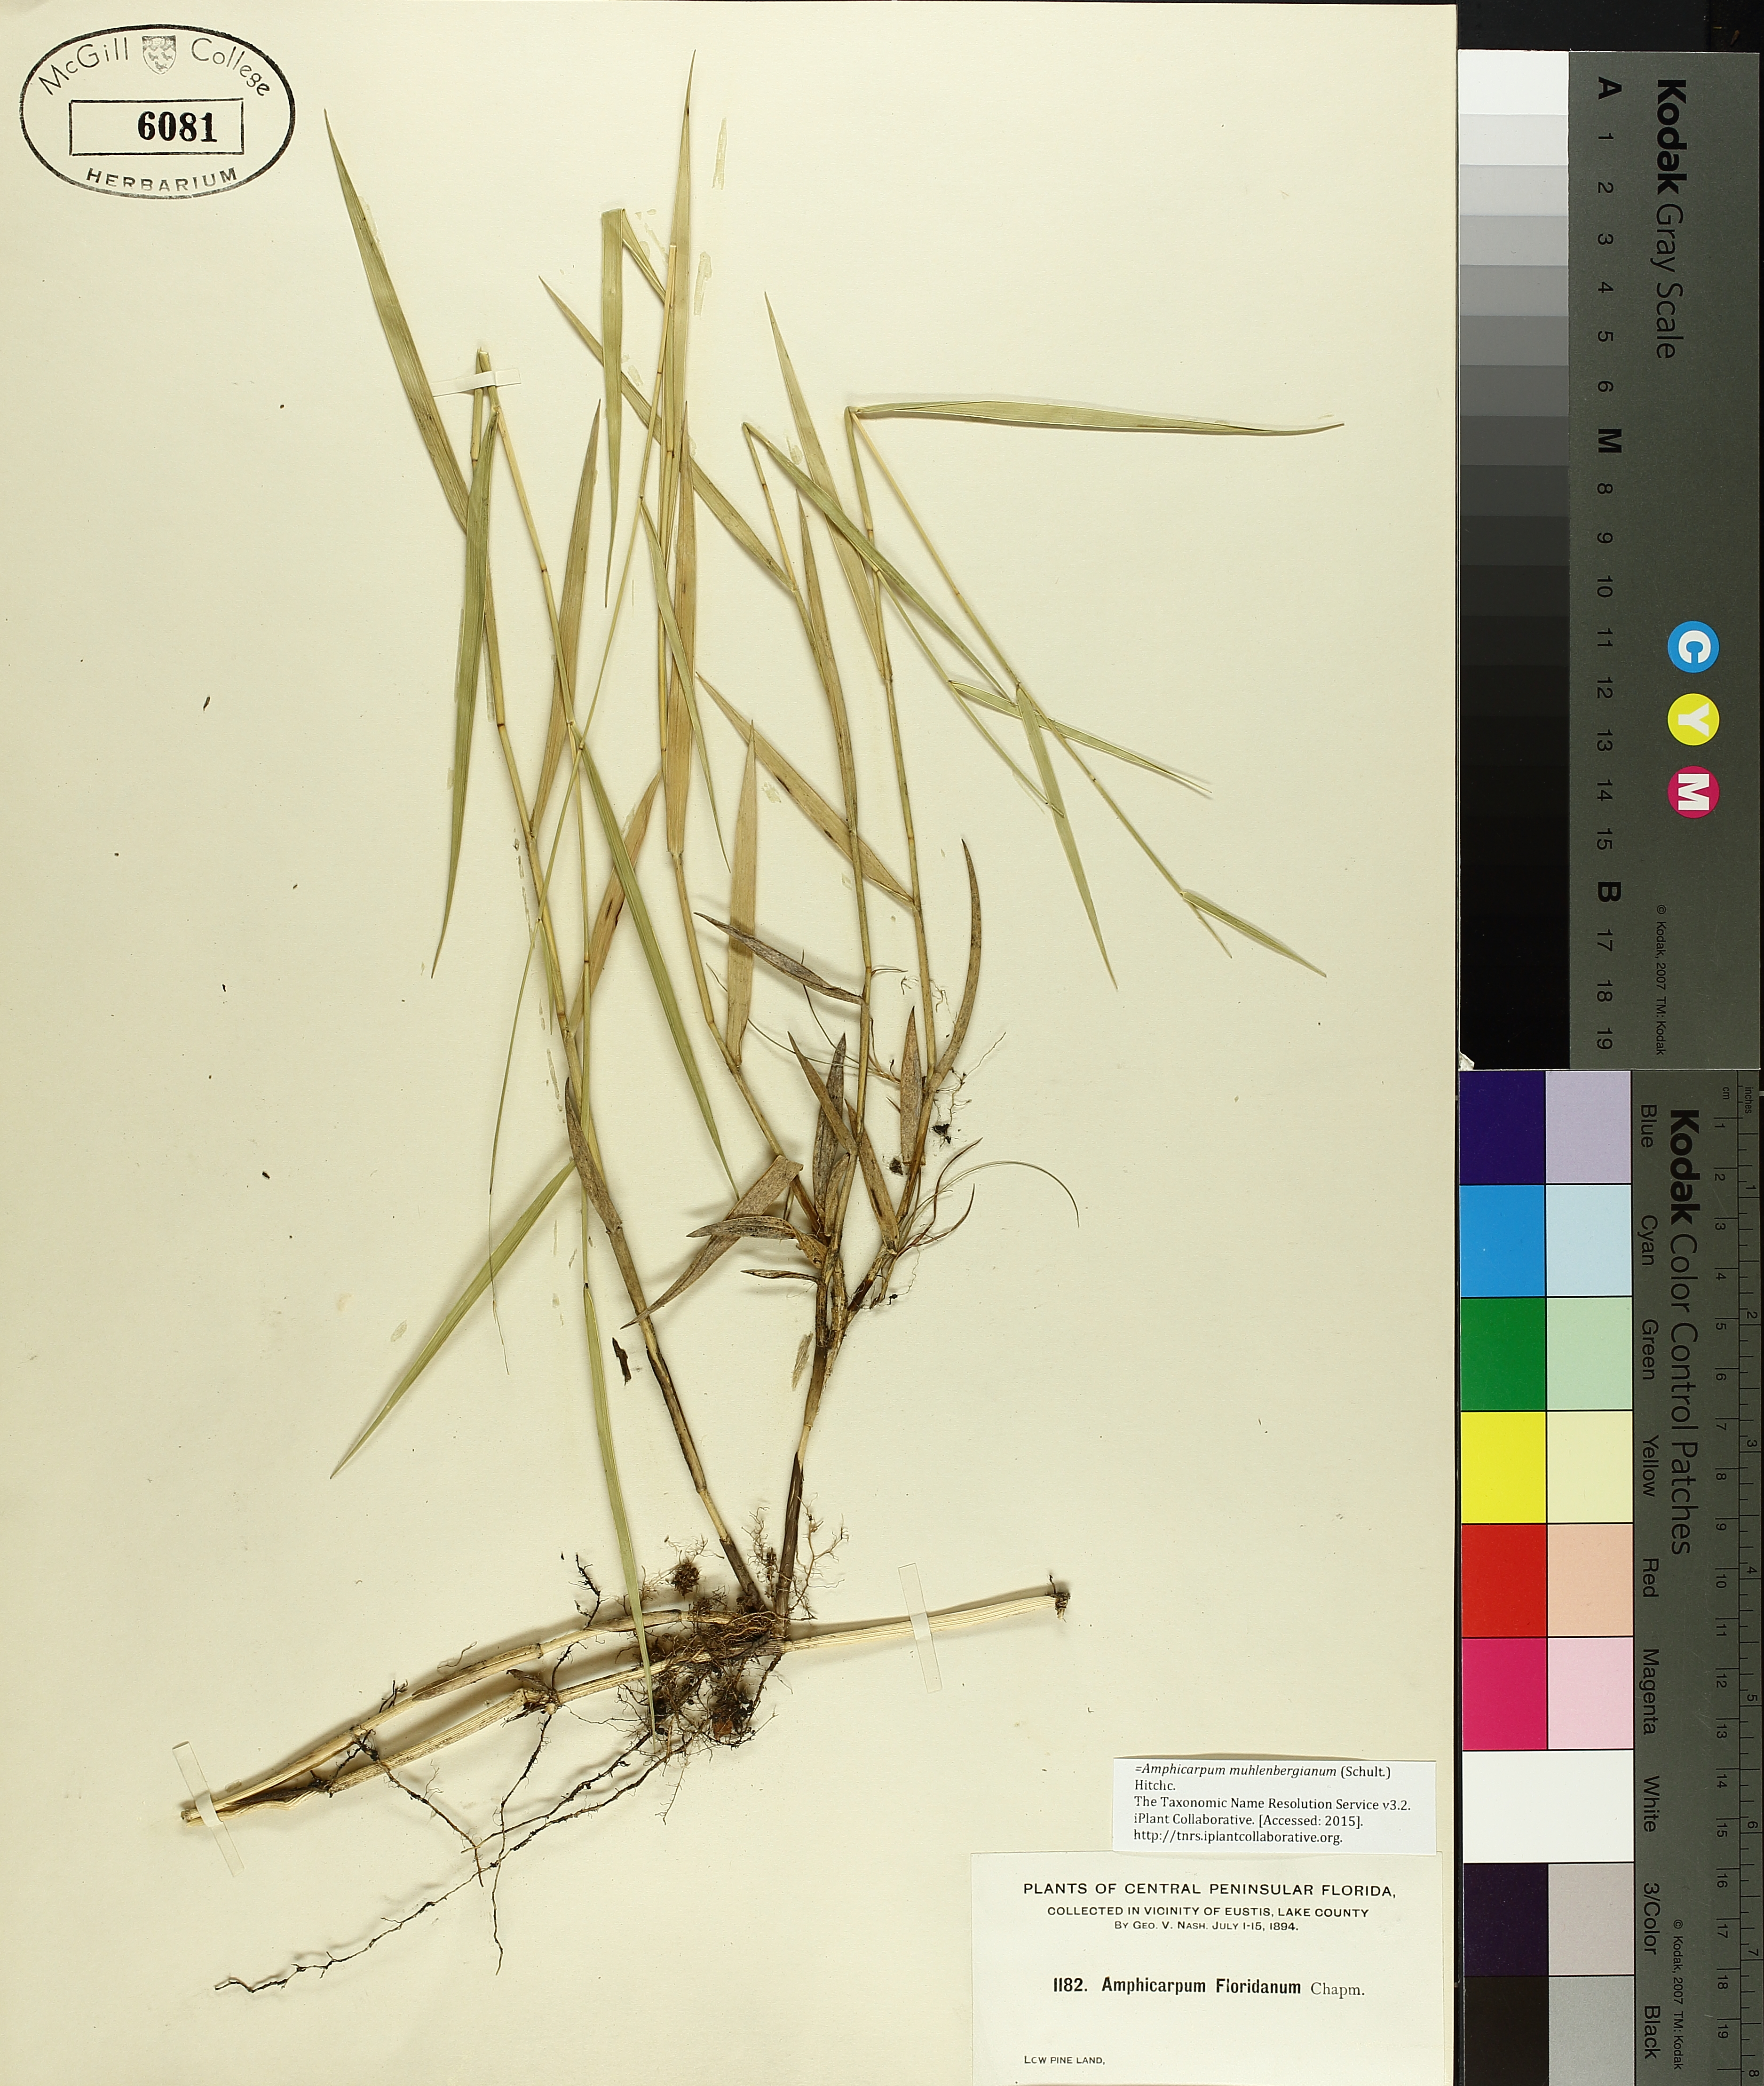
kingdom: Plantae
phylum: Tracheophyta
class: Magnoliopsida
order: Caryophyllales
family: Polygonaceae
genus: Rumex
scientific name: Rumex crispus
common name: Curled dock
